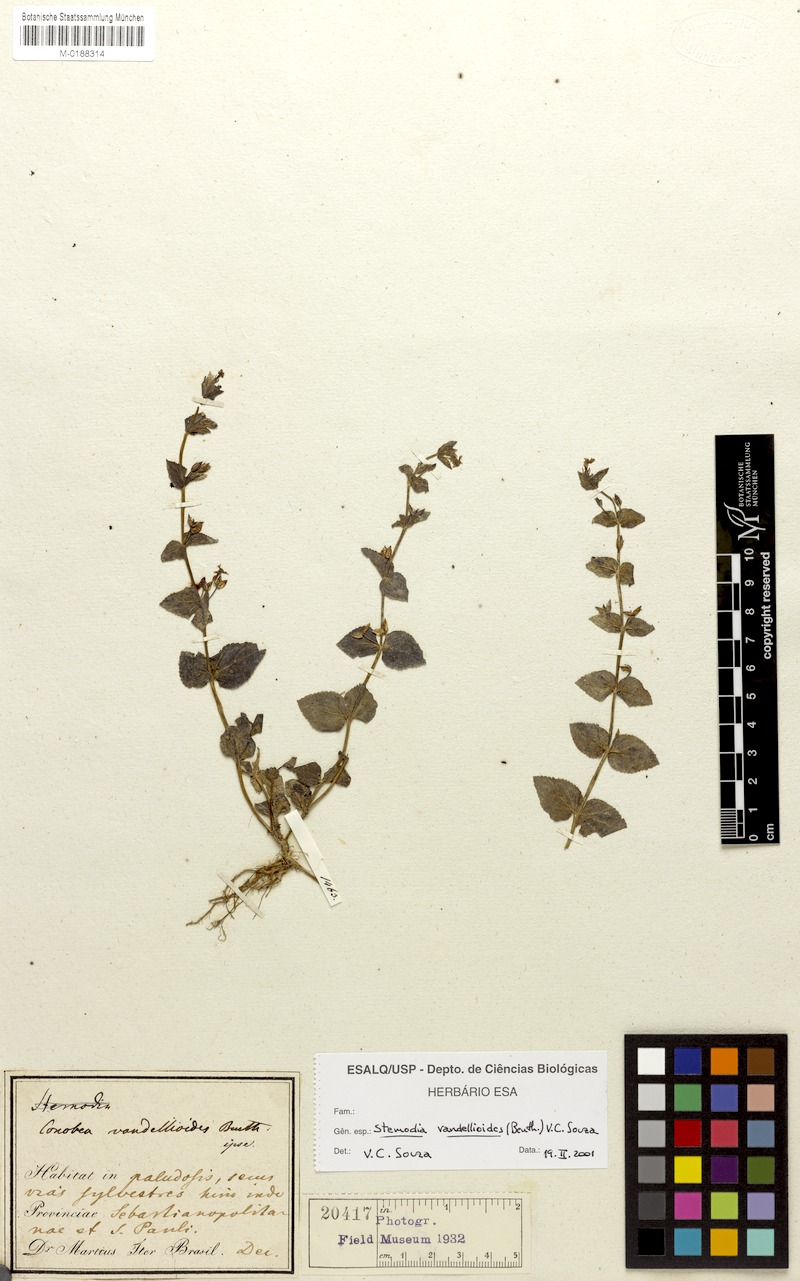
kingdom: Plantae
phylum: Tracheophyta
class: Magnoliopsida
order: Lamiales
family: Plantaginaceae
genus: Darcya
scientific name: Darcya vandellioides
